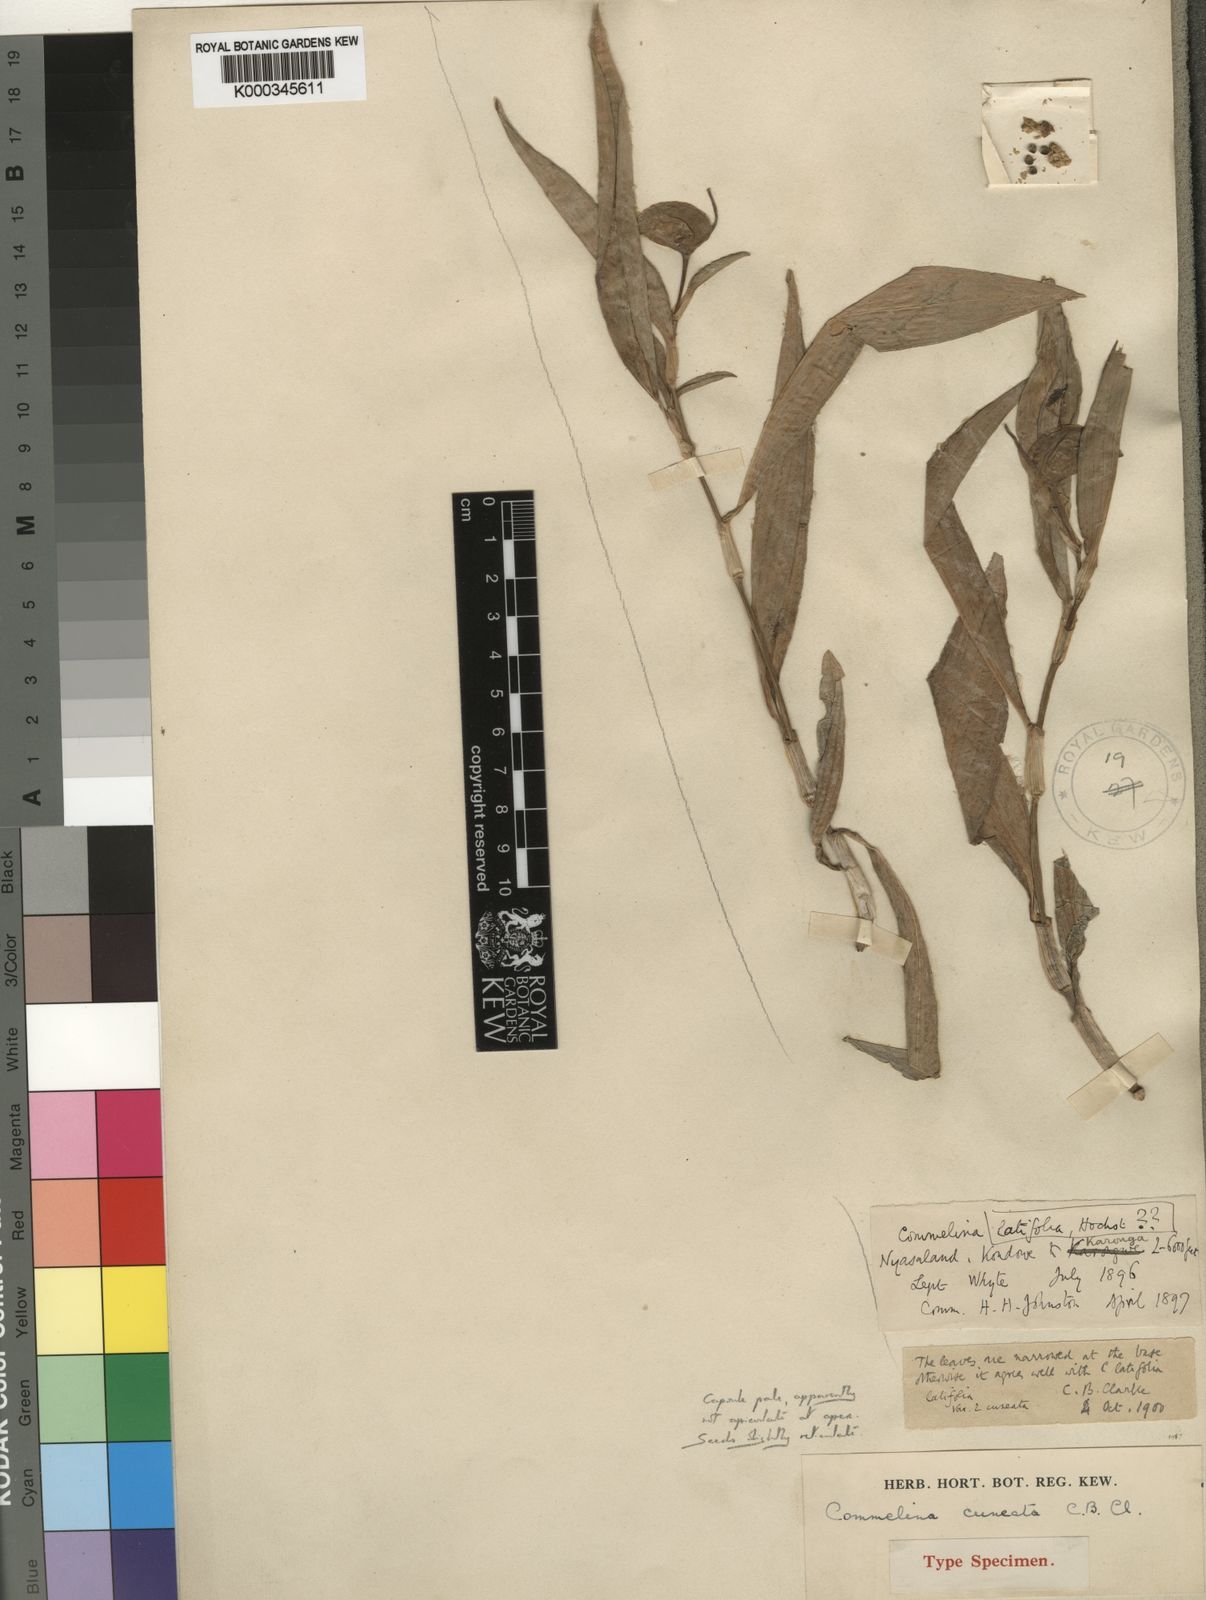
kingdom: Plantae
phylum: Tracheophyta
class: Liliopsida
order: Commelinales
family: Commelinaceae
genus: Commelina
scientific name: Commelina zambesica
